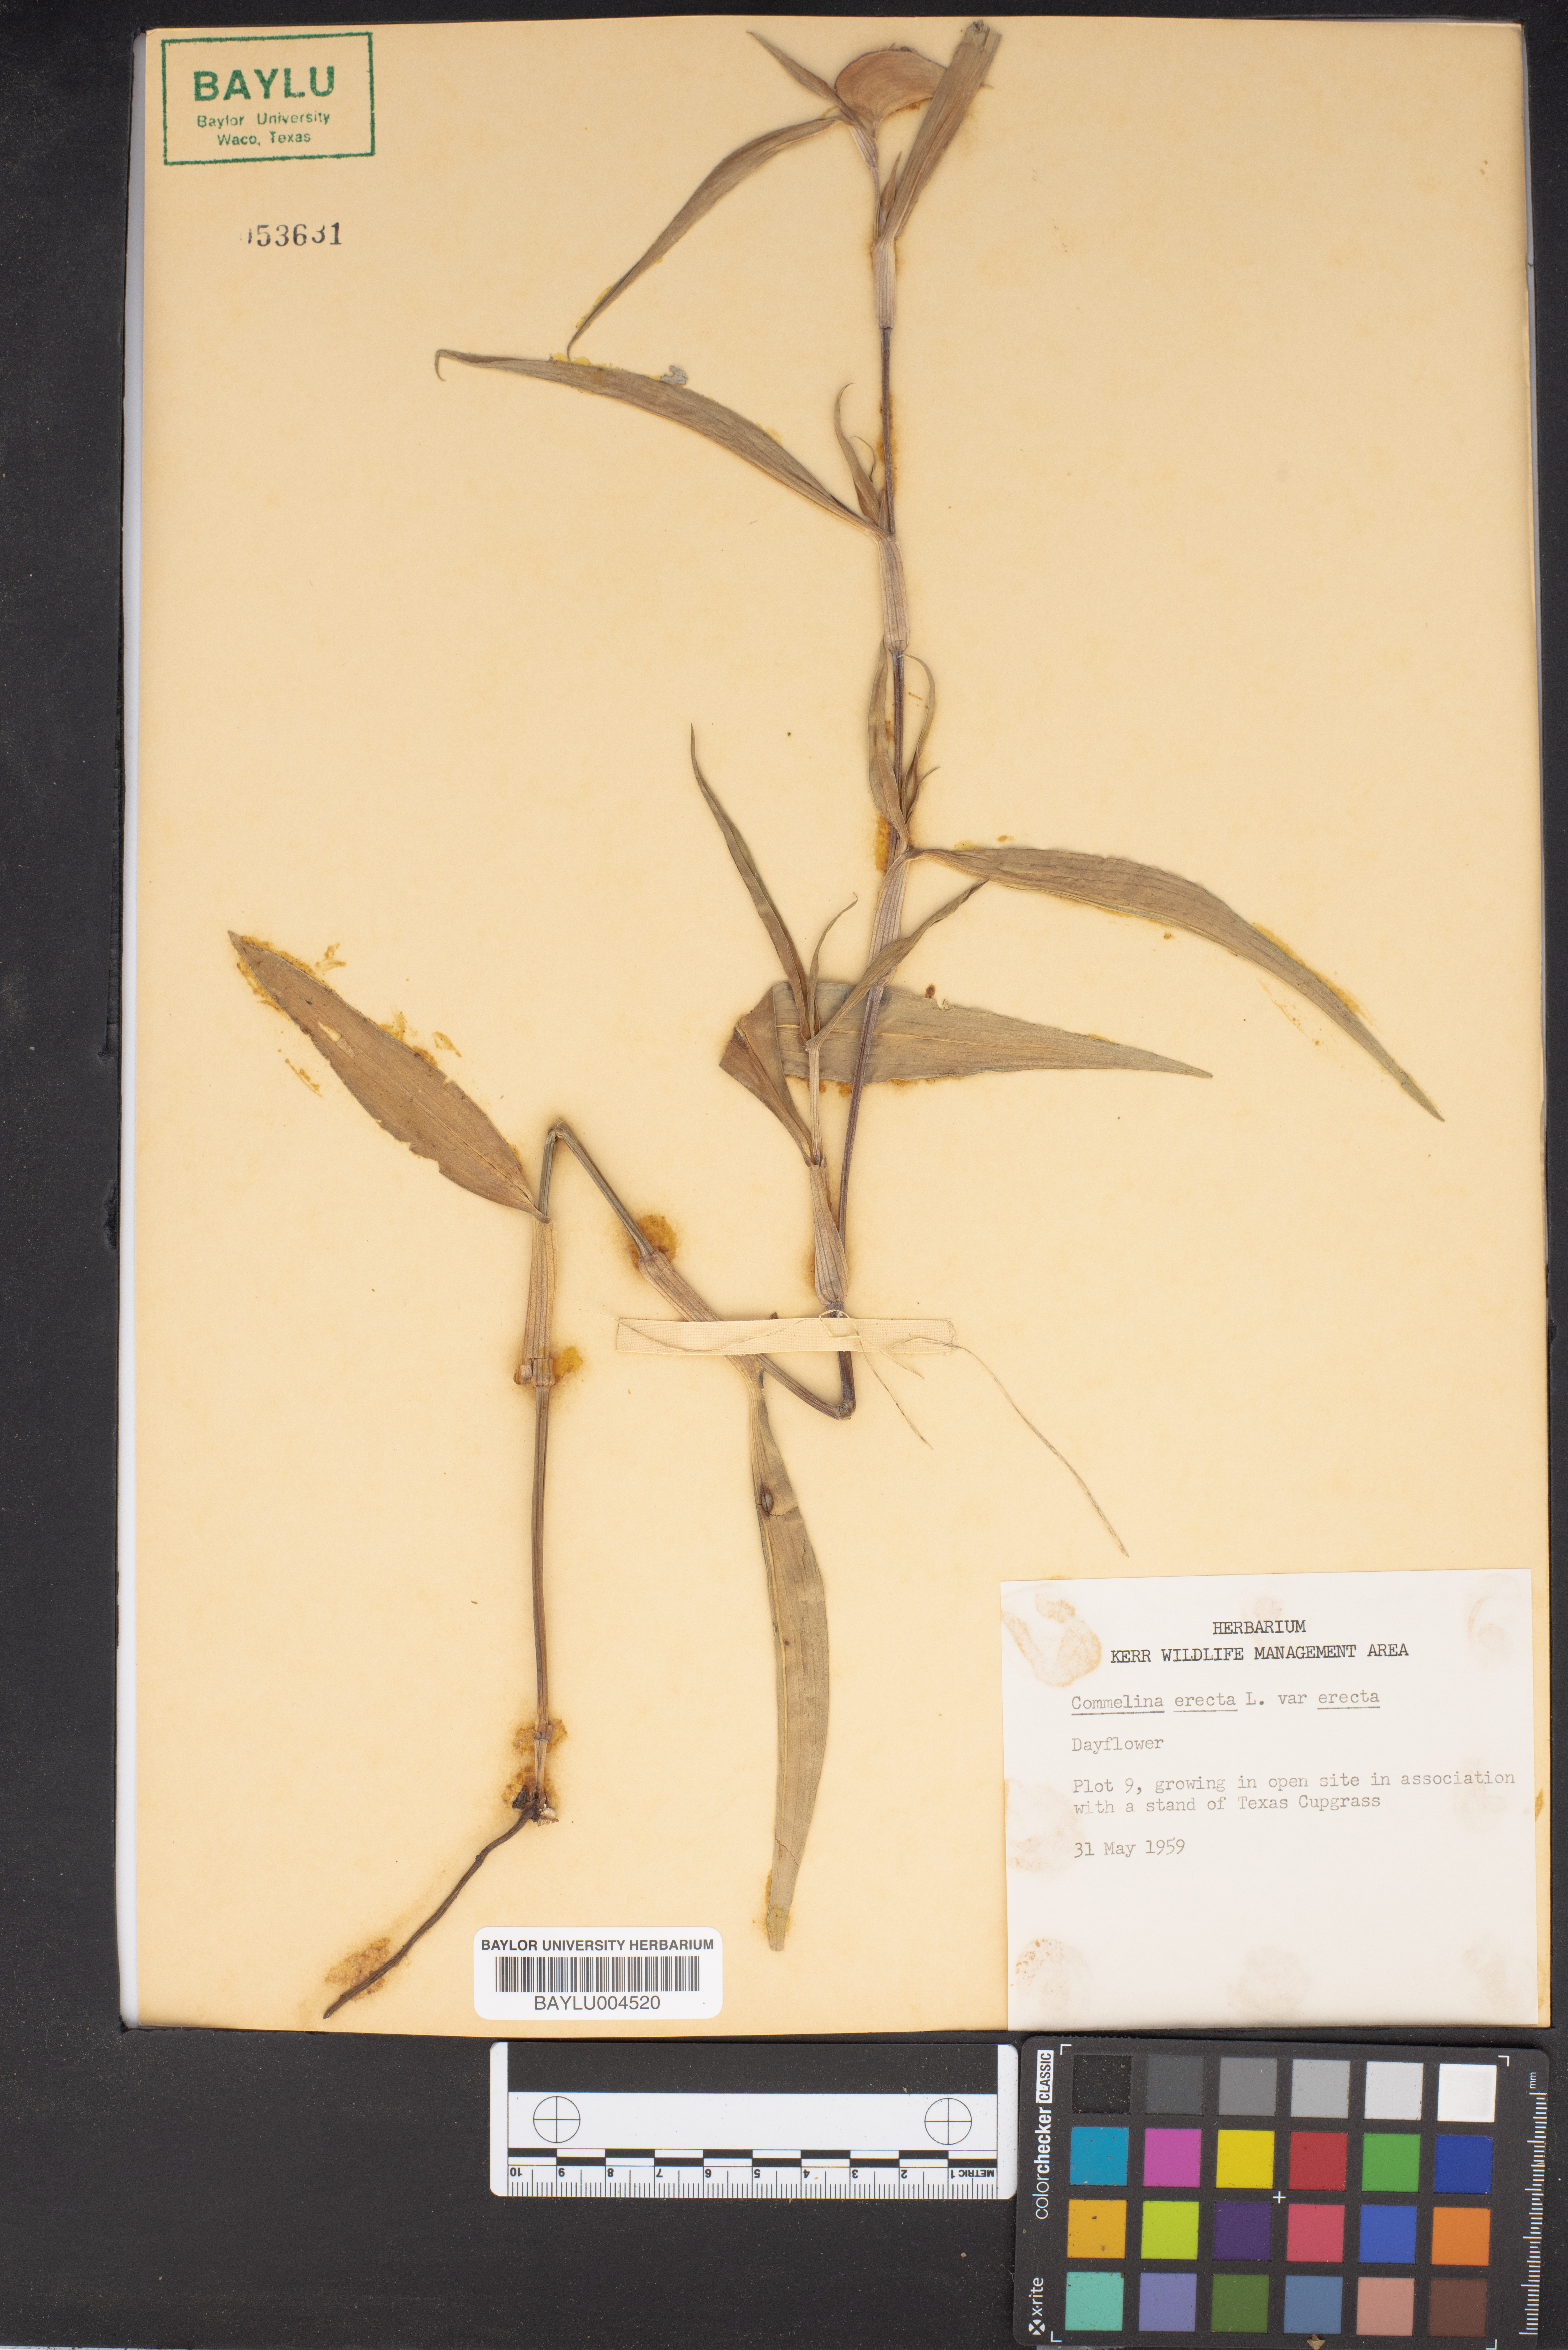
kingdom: Plantae
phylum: Tracheophyta
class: Liliopsida
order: Commelinales
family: Commelinaceae
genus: Commelina
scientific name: Commelina erecta
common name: Blousel blommetjie
